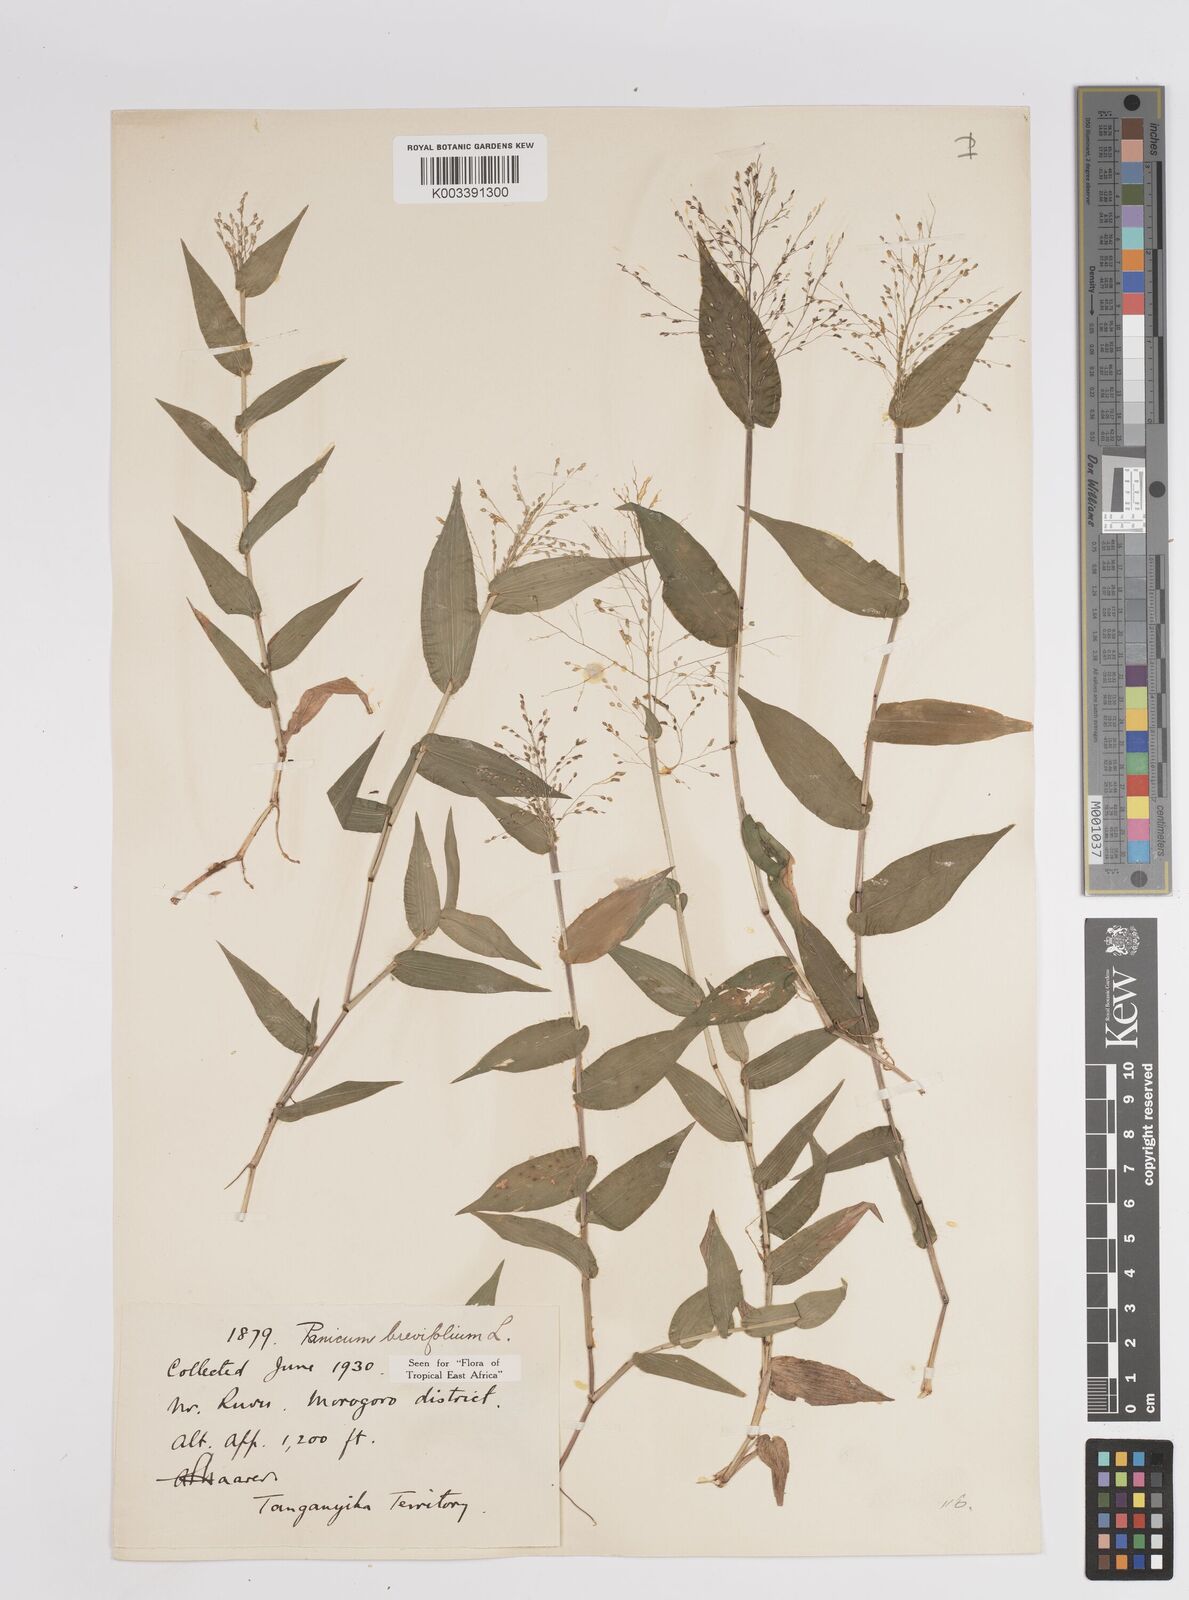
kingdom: Plantae
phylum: Tracheophyta
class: Liliopsida
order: Poales
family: Poaceae
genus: Panicum
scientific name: Panicum brevifolium
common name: Shortleaf panic grass
